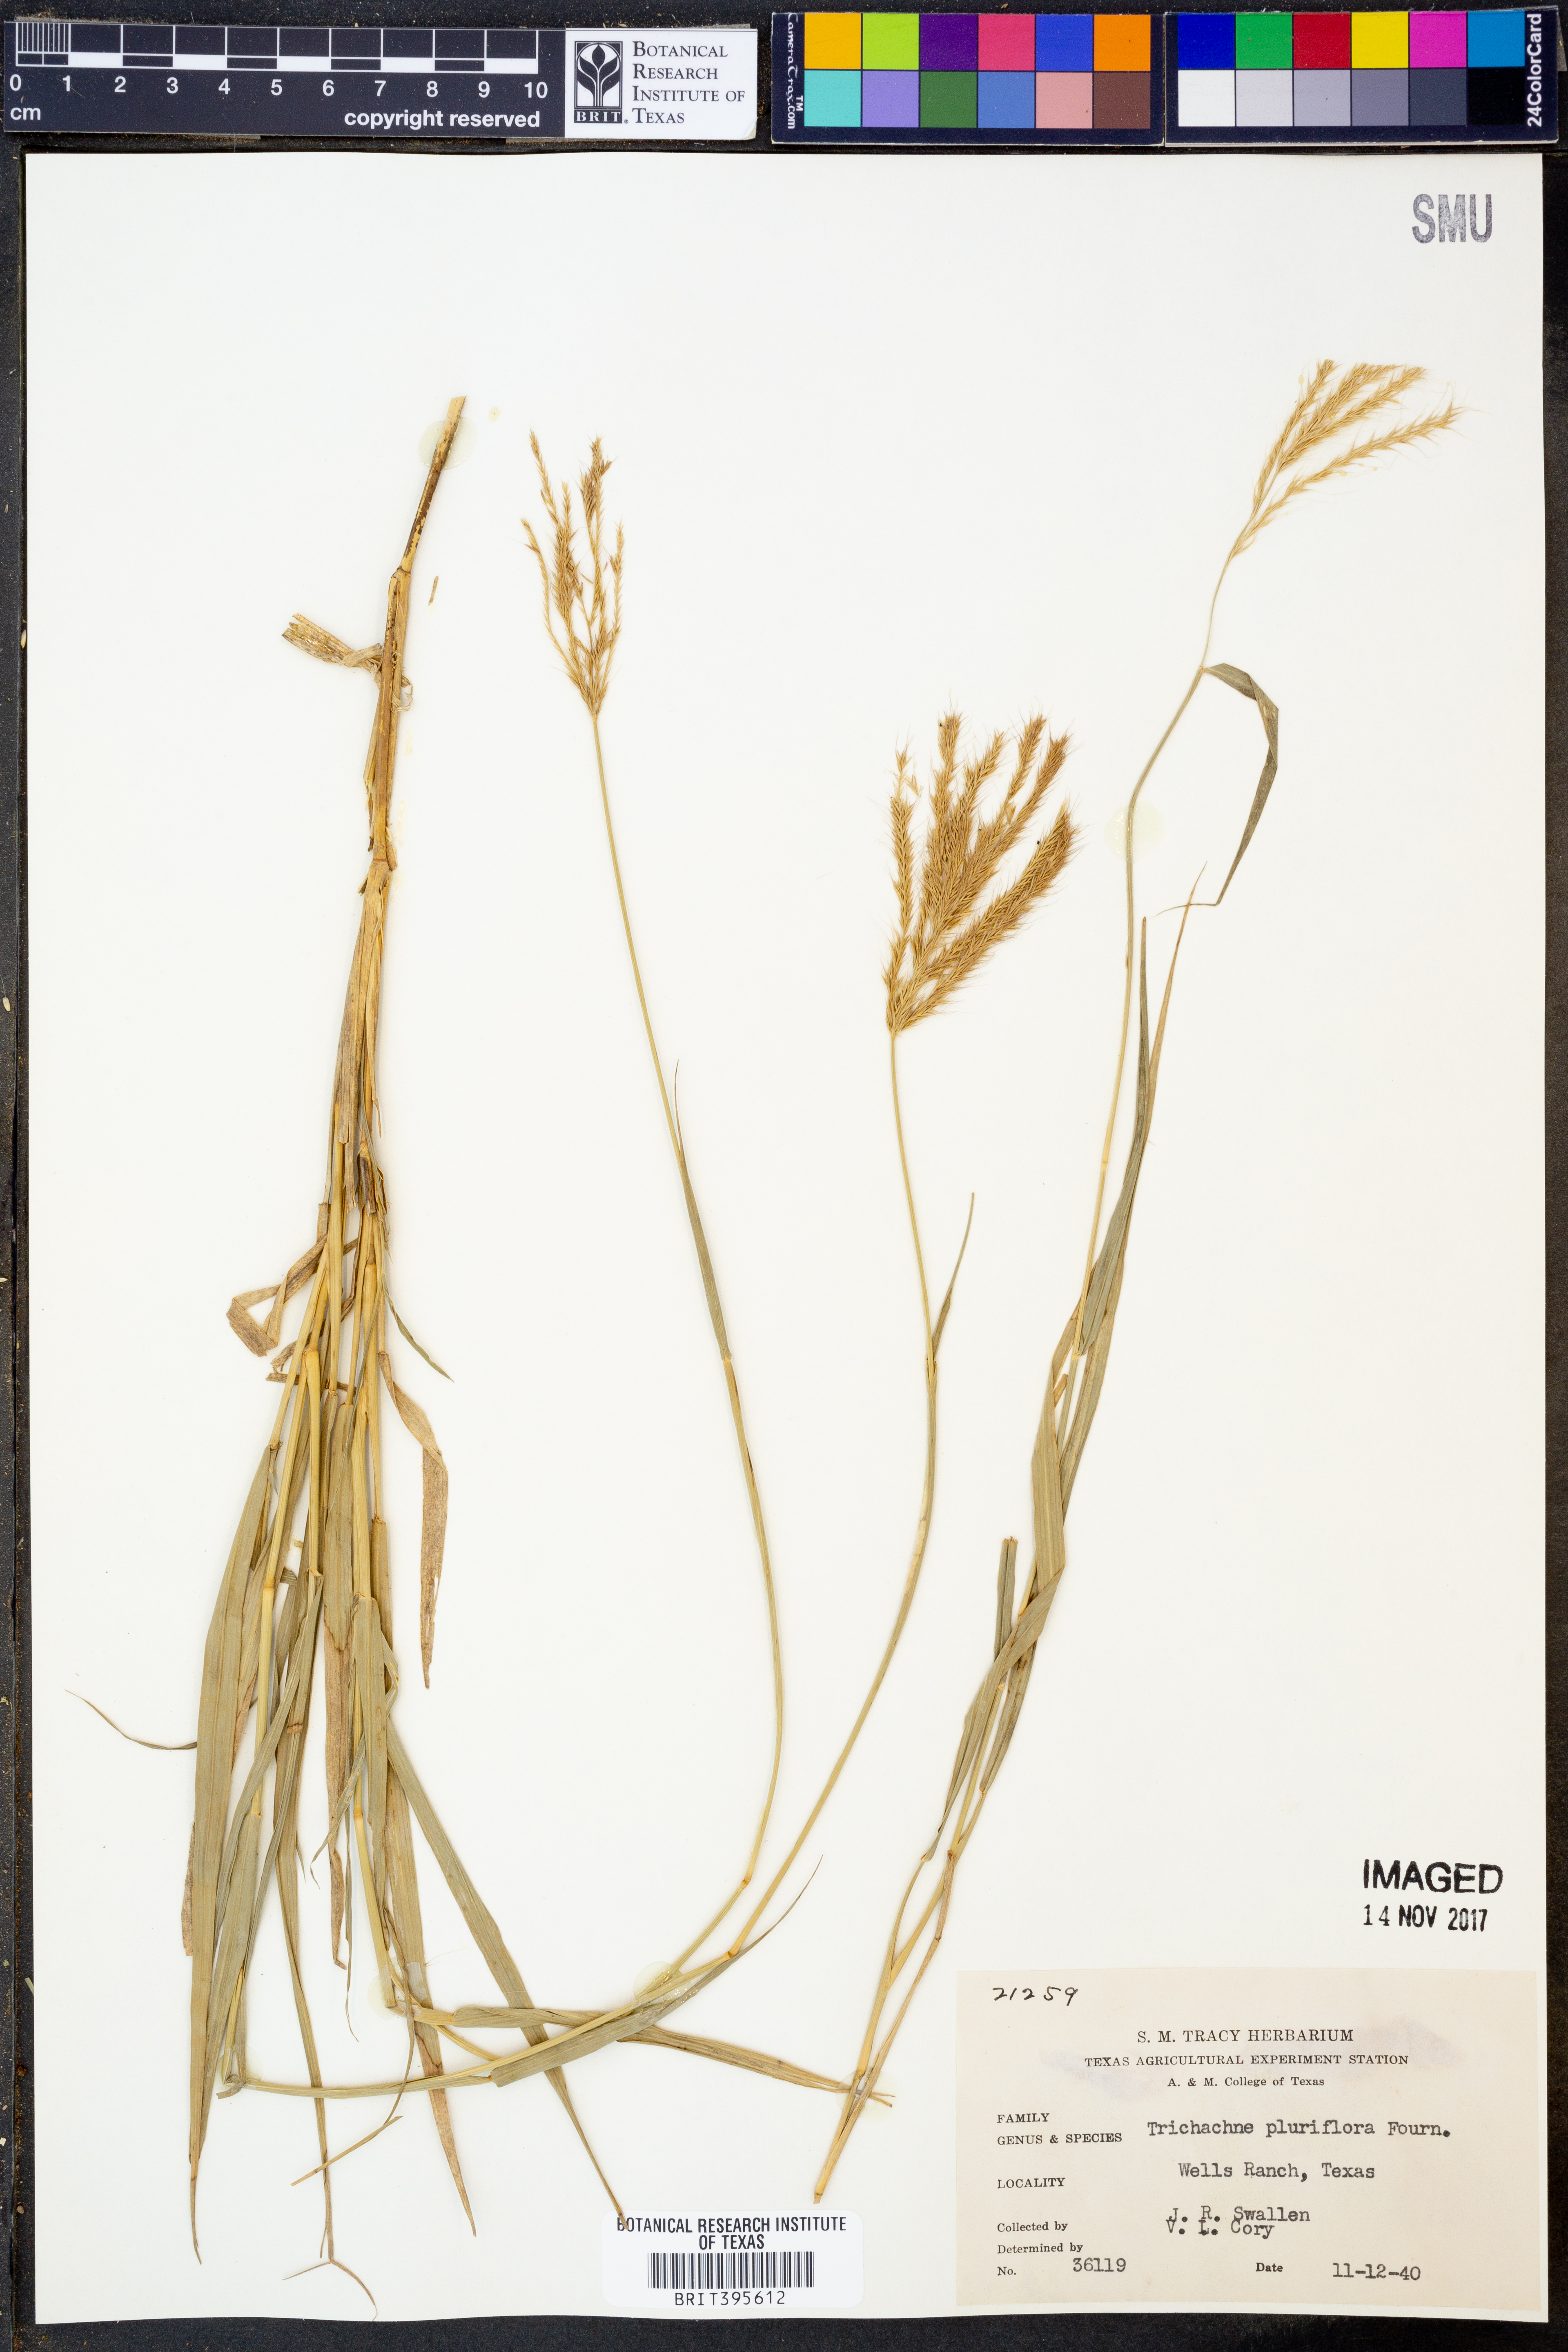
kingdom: Plantae
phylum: Tracheophyta
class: Liliopsida
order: Poales
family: Poaceae
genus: Leptochloa
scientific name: Leptochloa pluriflora
